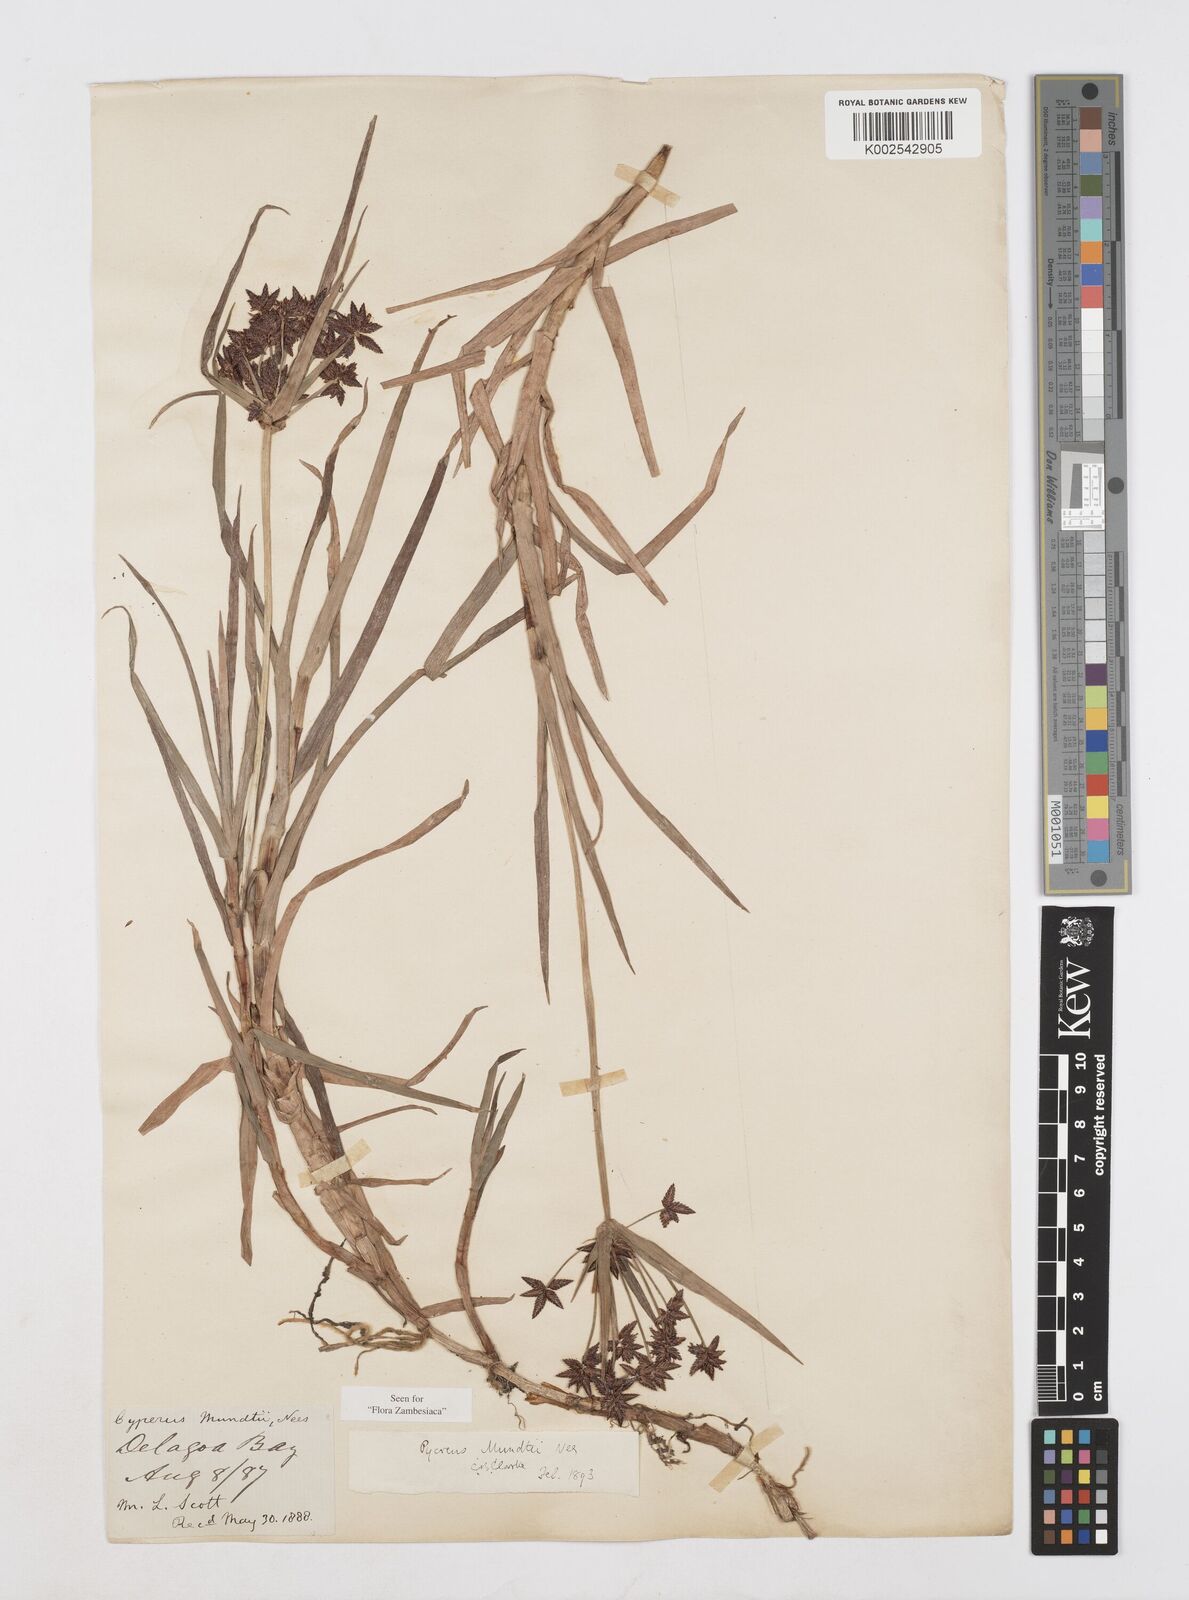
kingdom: Plantae
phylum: Tracheophyta
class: Liliopsida
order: Poales
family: Cyperaceae
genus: Cyperus
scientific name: Cyperus mundii
